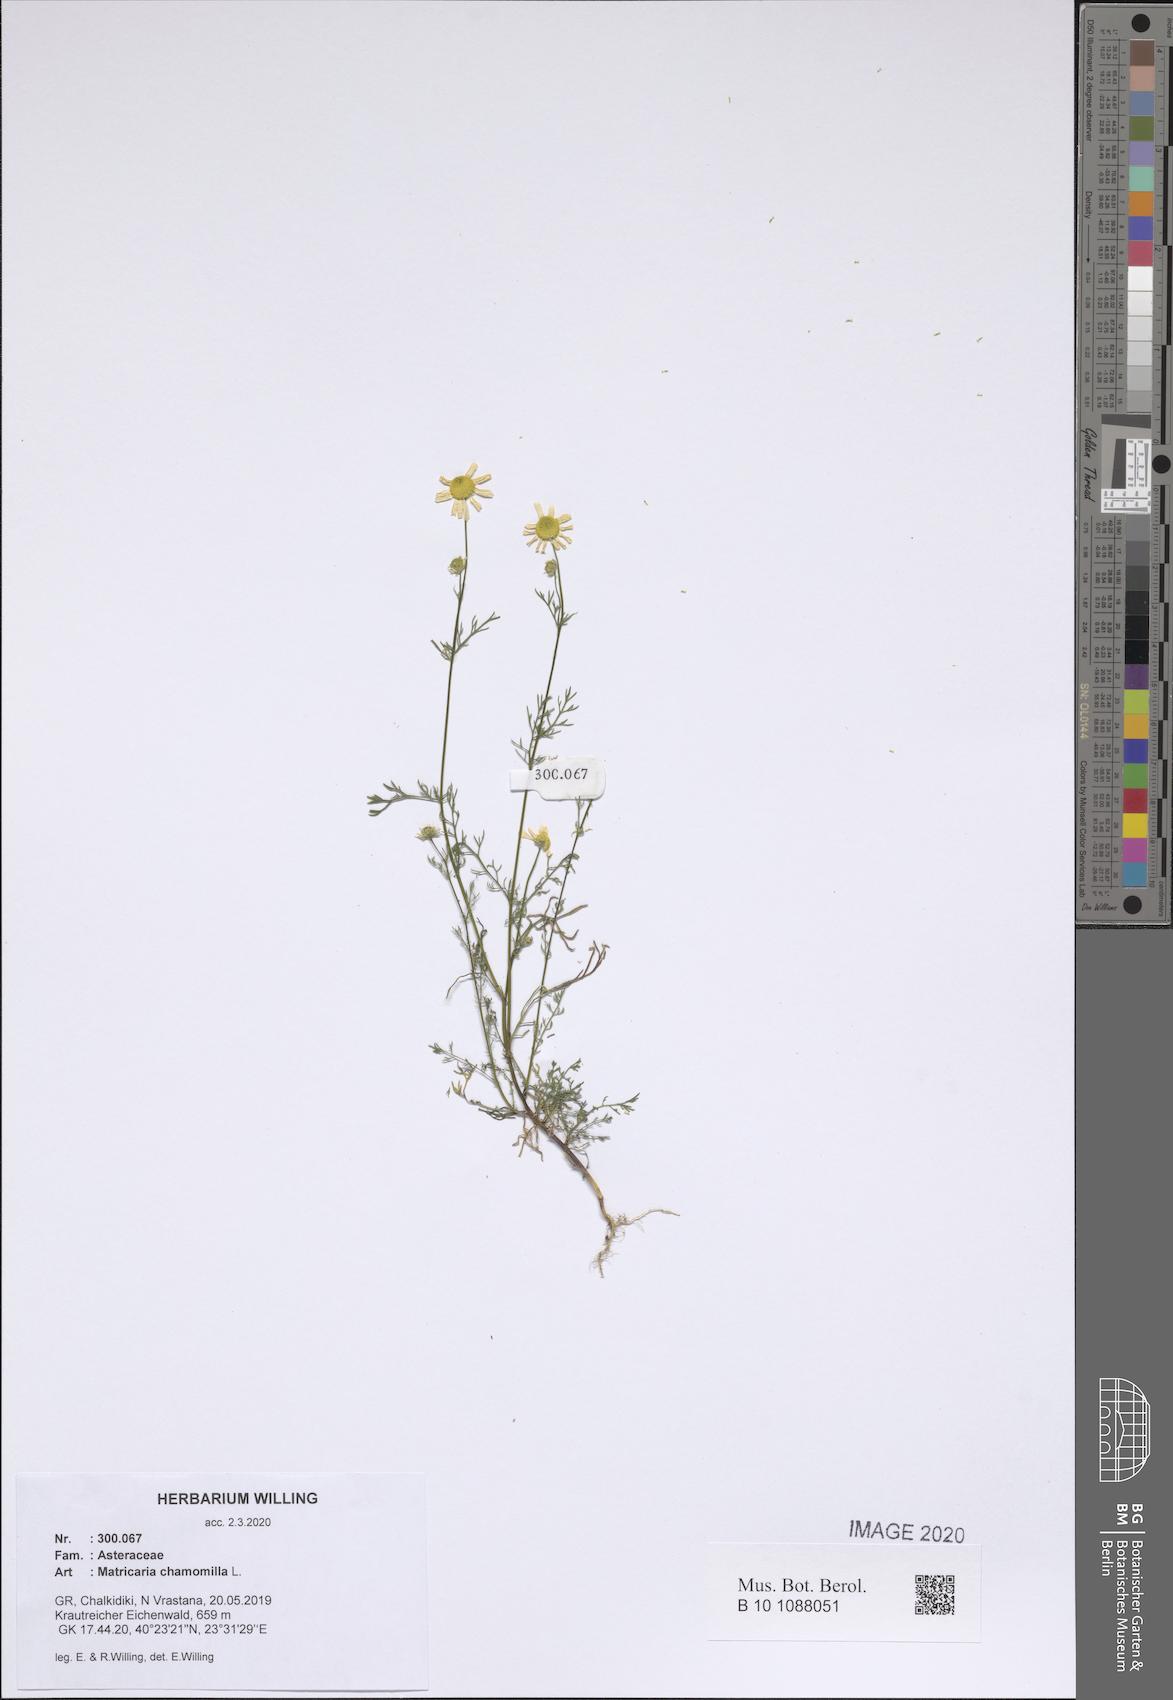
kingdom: Plantae
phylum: Tracheophyta
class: Magnoliopsida
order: Asterales
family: Asteraceae
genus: Matricaria
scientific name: Matricaria chamomilla
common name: Scented mayweed
